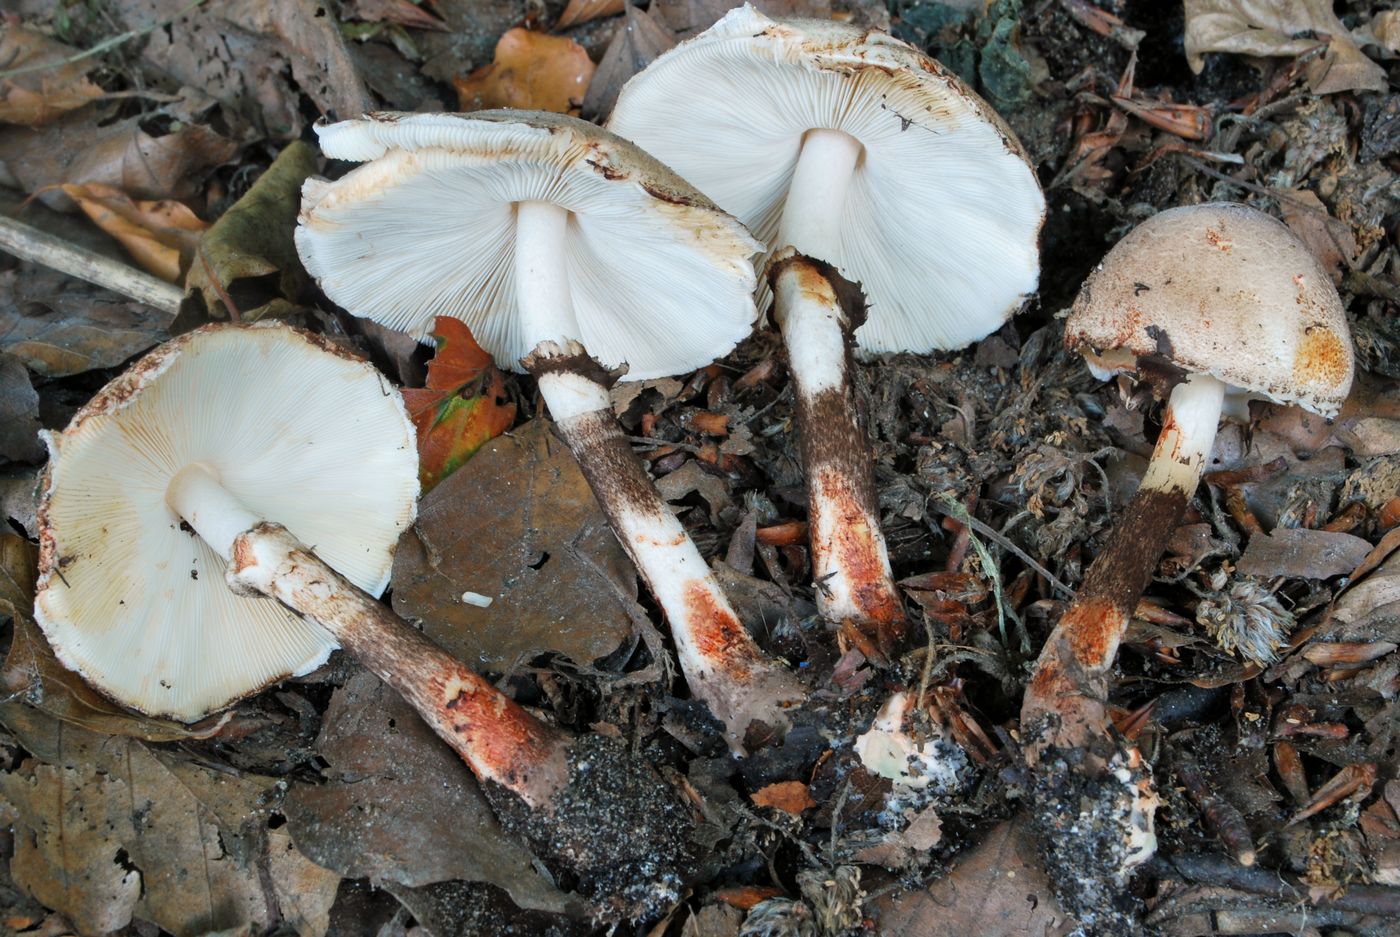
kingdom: Fungi
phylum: Basidiomycota
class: Agaricomycetes
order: Agaricales
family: Agaricaceae
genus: Leucoagaricus
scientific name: Leucoagaricus badhamii
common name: rødmende silkehat
